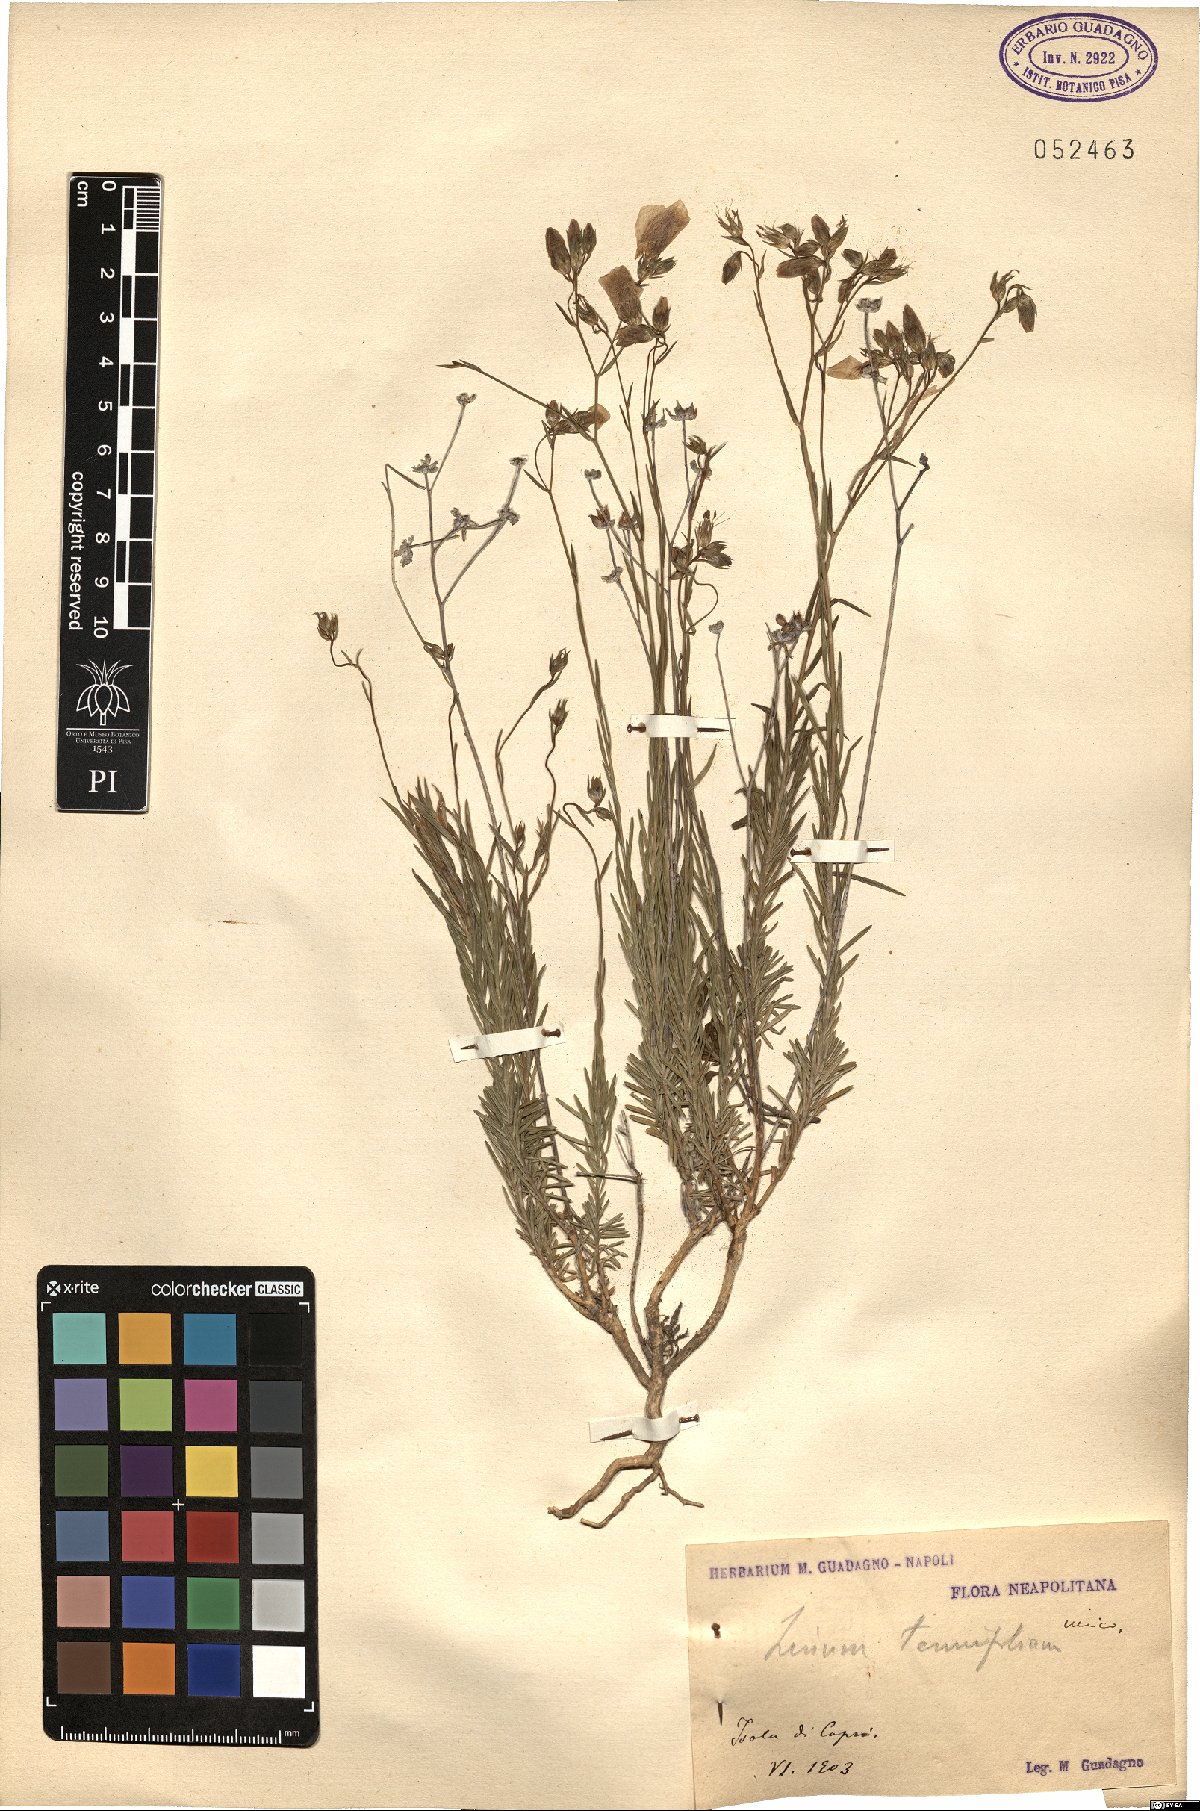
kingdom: Plantae
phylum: Tracheophyta
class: Magnoliopsida
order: Malpighiales
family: Linaceae
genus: Linum
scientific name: Linum tenuifolium
